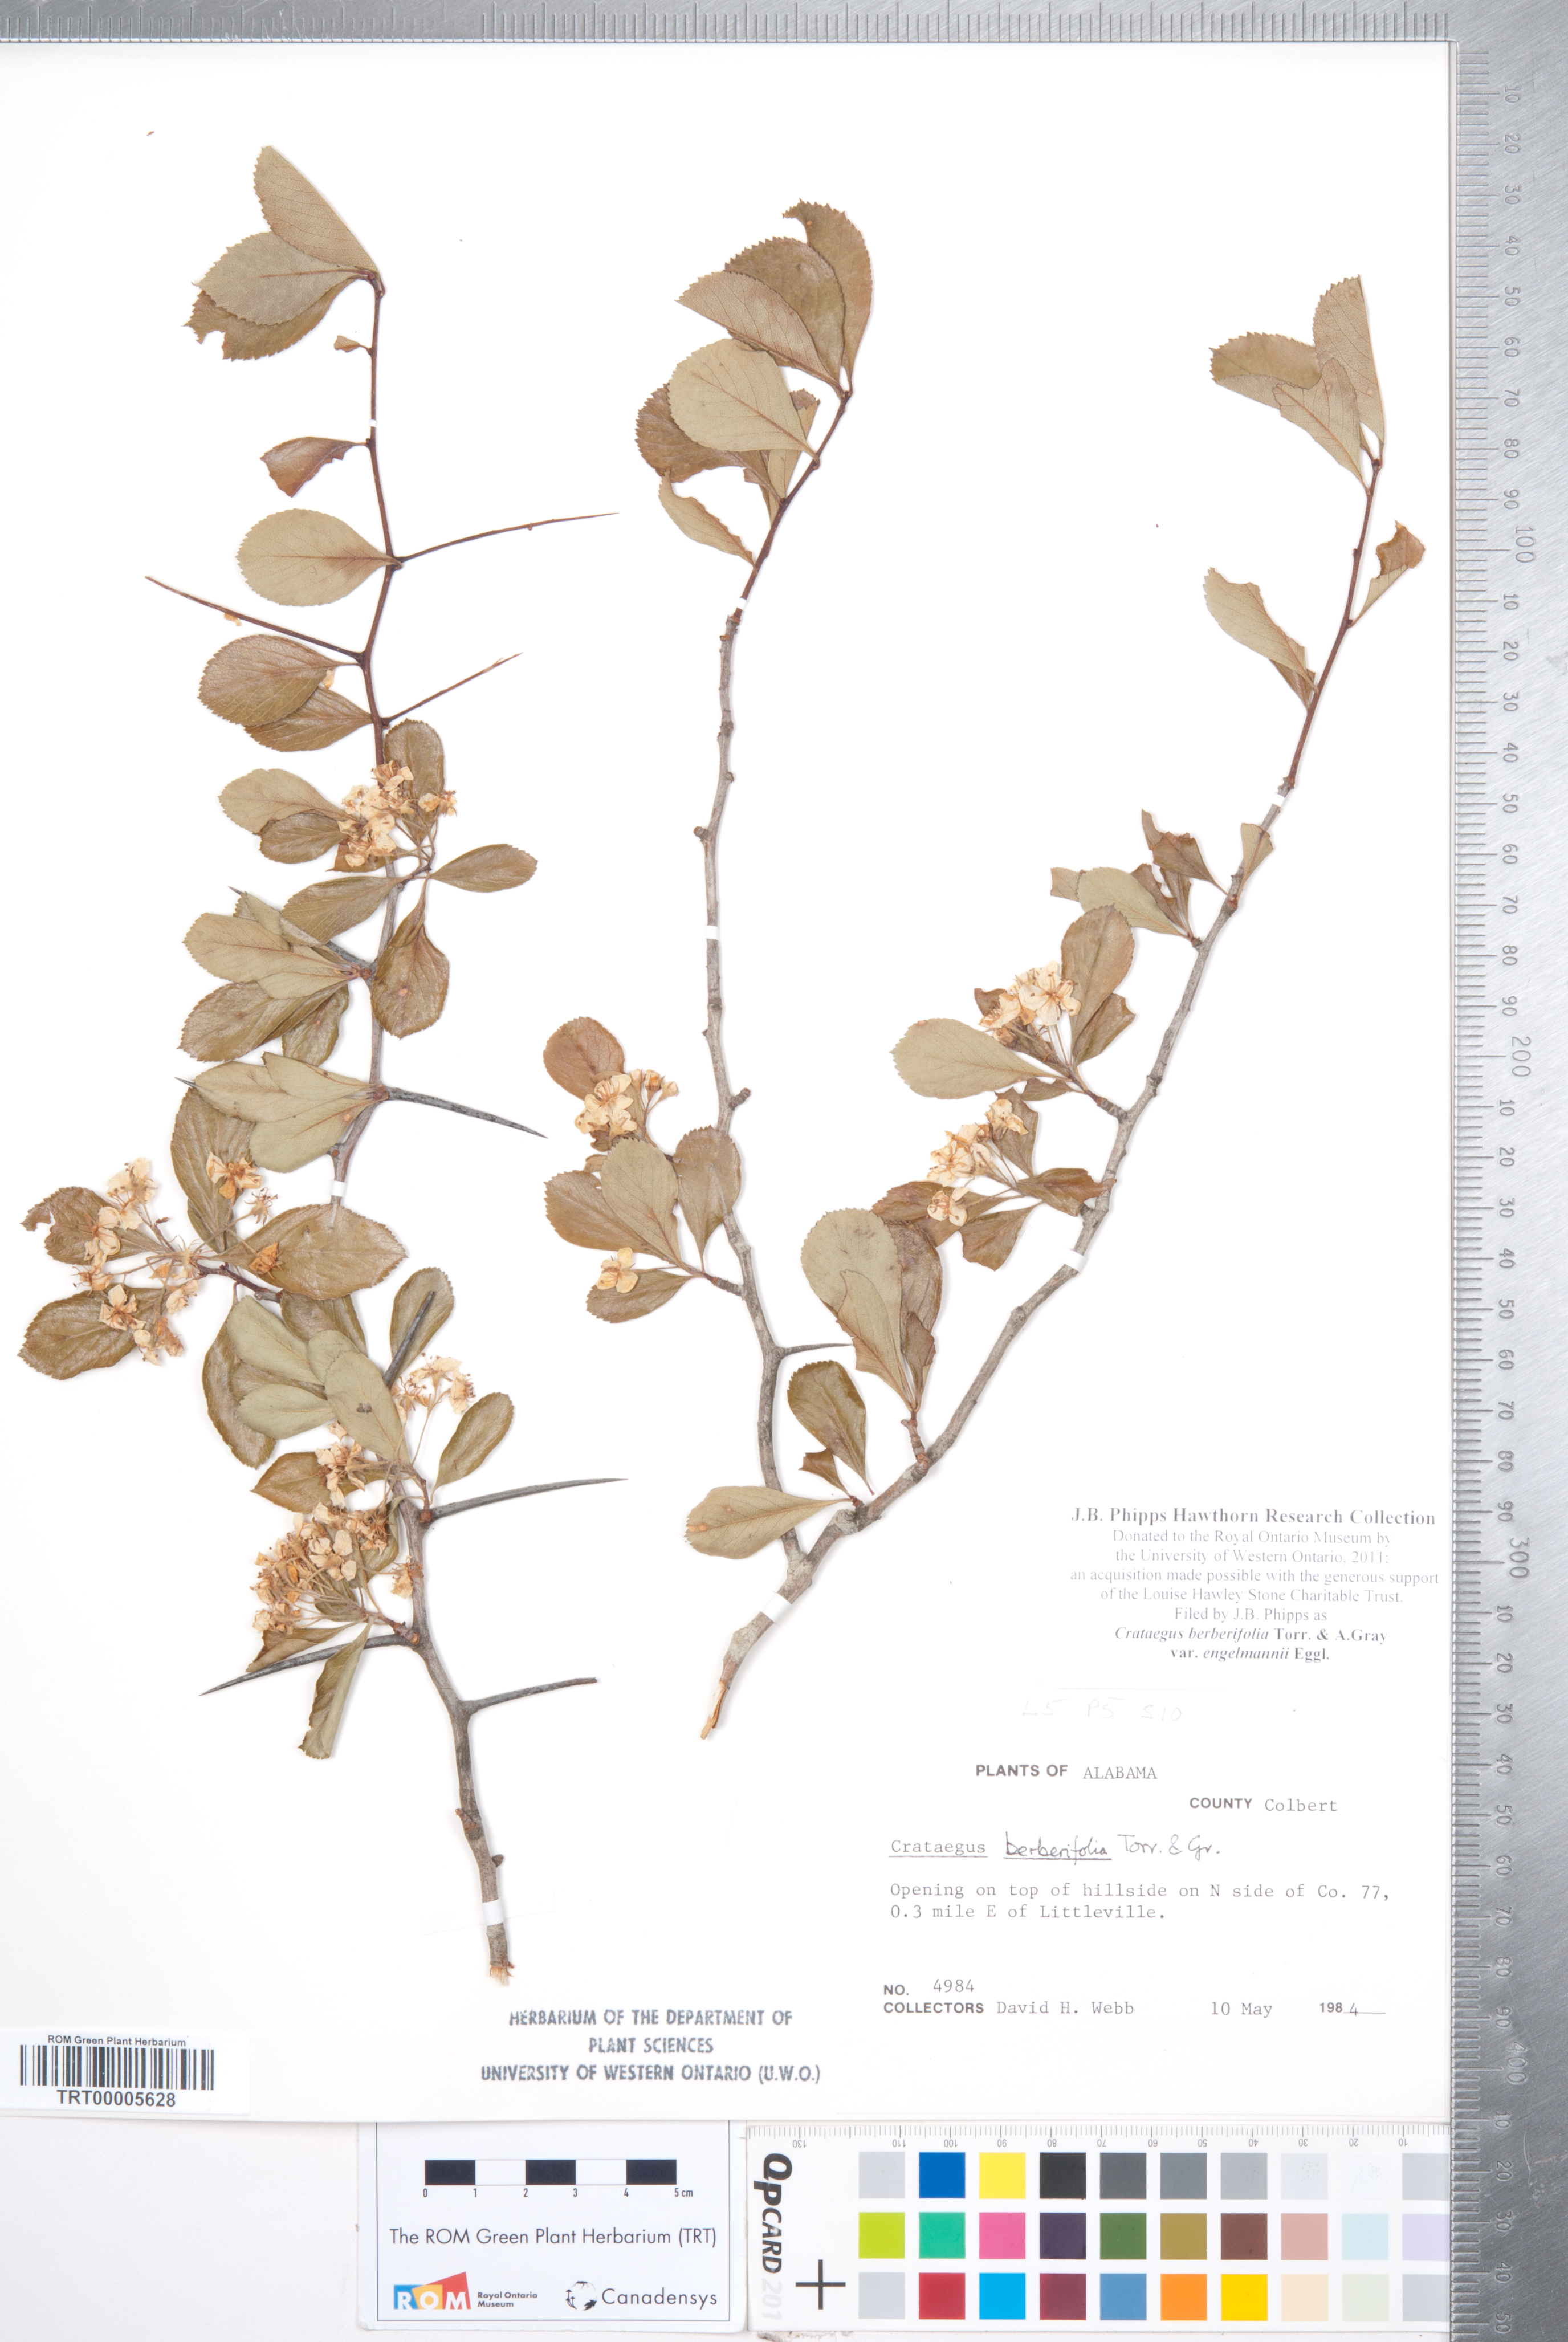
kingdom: Plantae
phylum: Tracheophyta
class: Magnoliopsida
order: Rosales
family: Rosaceae
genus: Crataegus
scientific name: Crataegus berberifolia
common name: Barberry hawthorn
